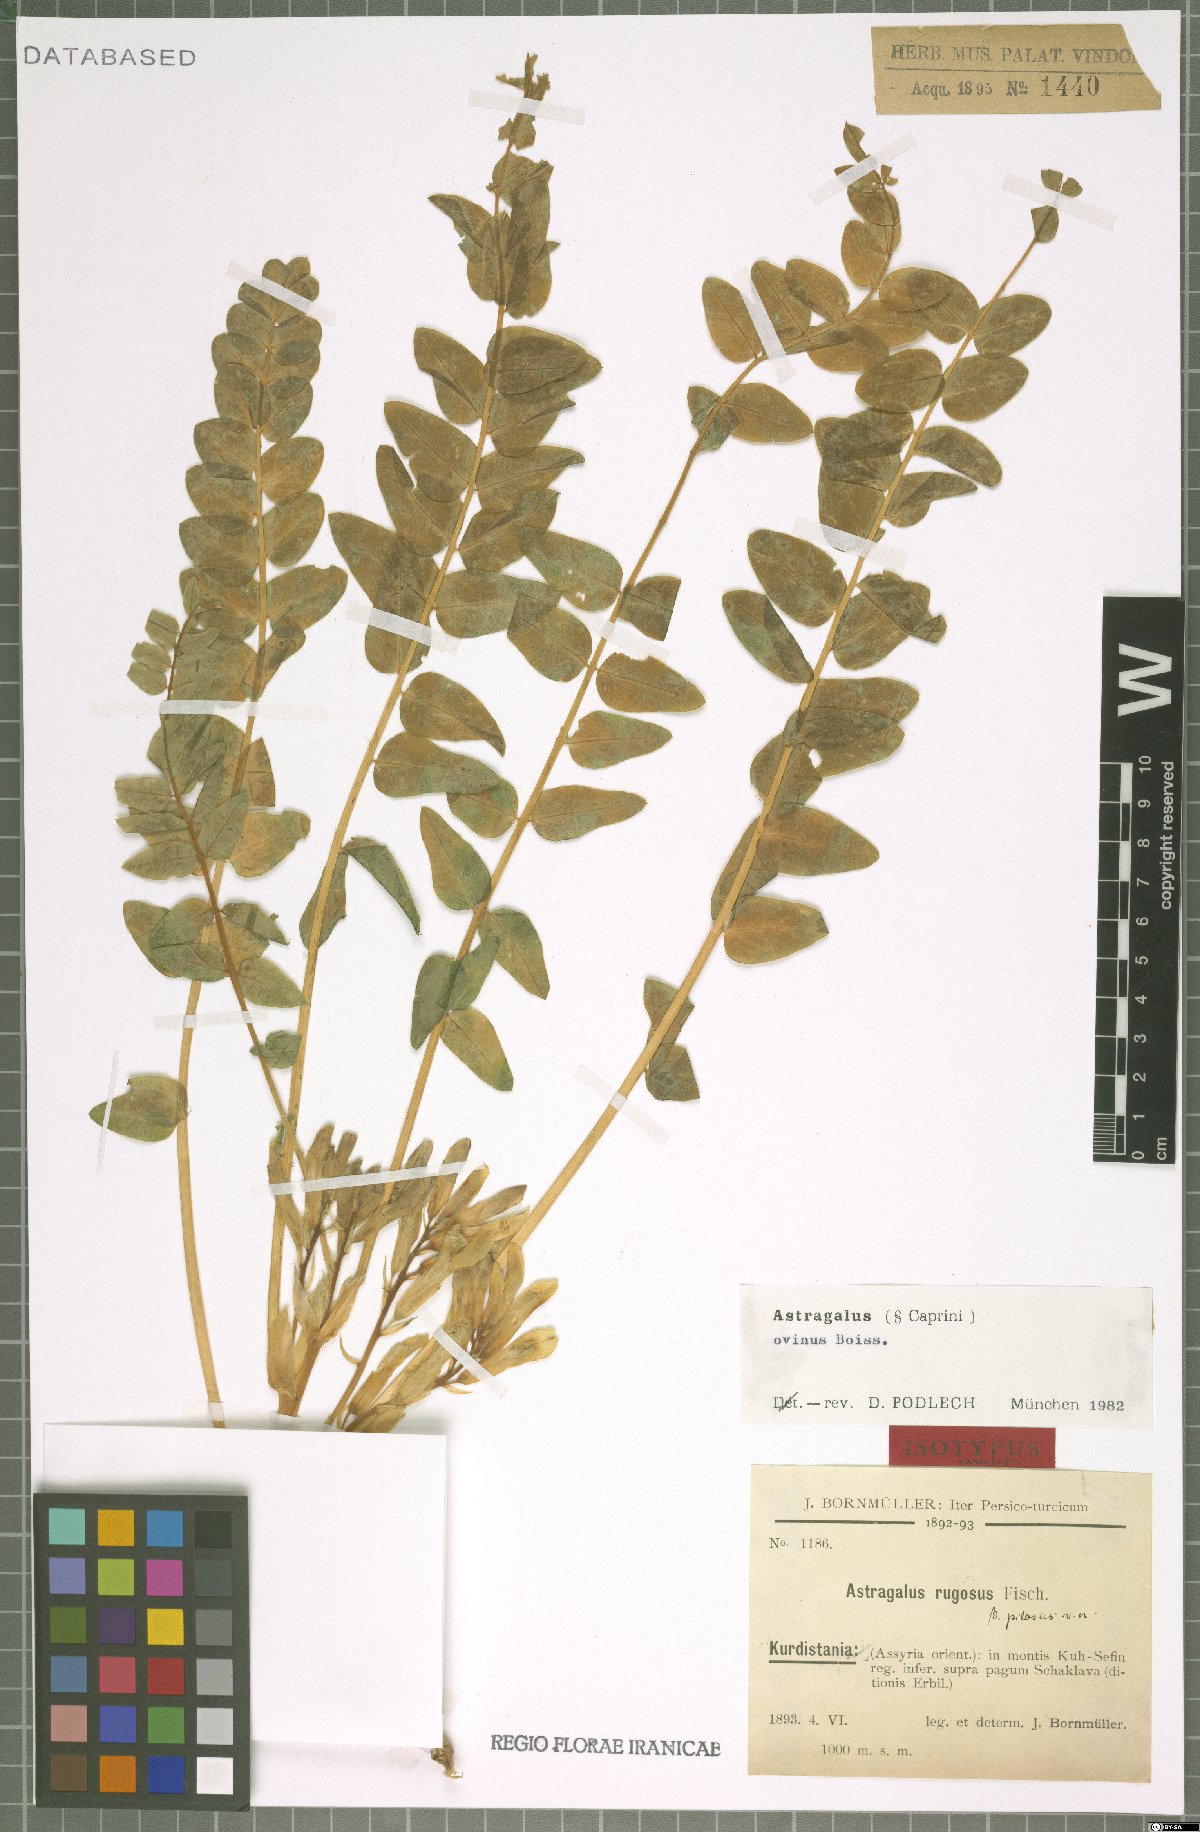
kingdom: Plantae
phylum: Tracheophyta
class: Magnoliopsida
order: Fabales
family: Fabaceae
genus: Astragalus
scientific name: Astragalus ovinus
